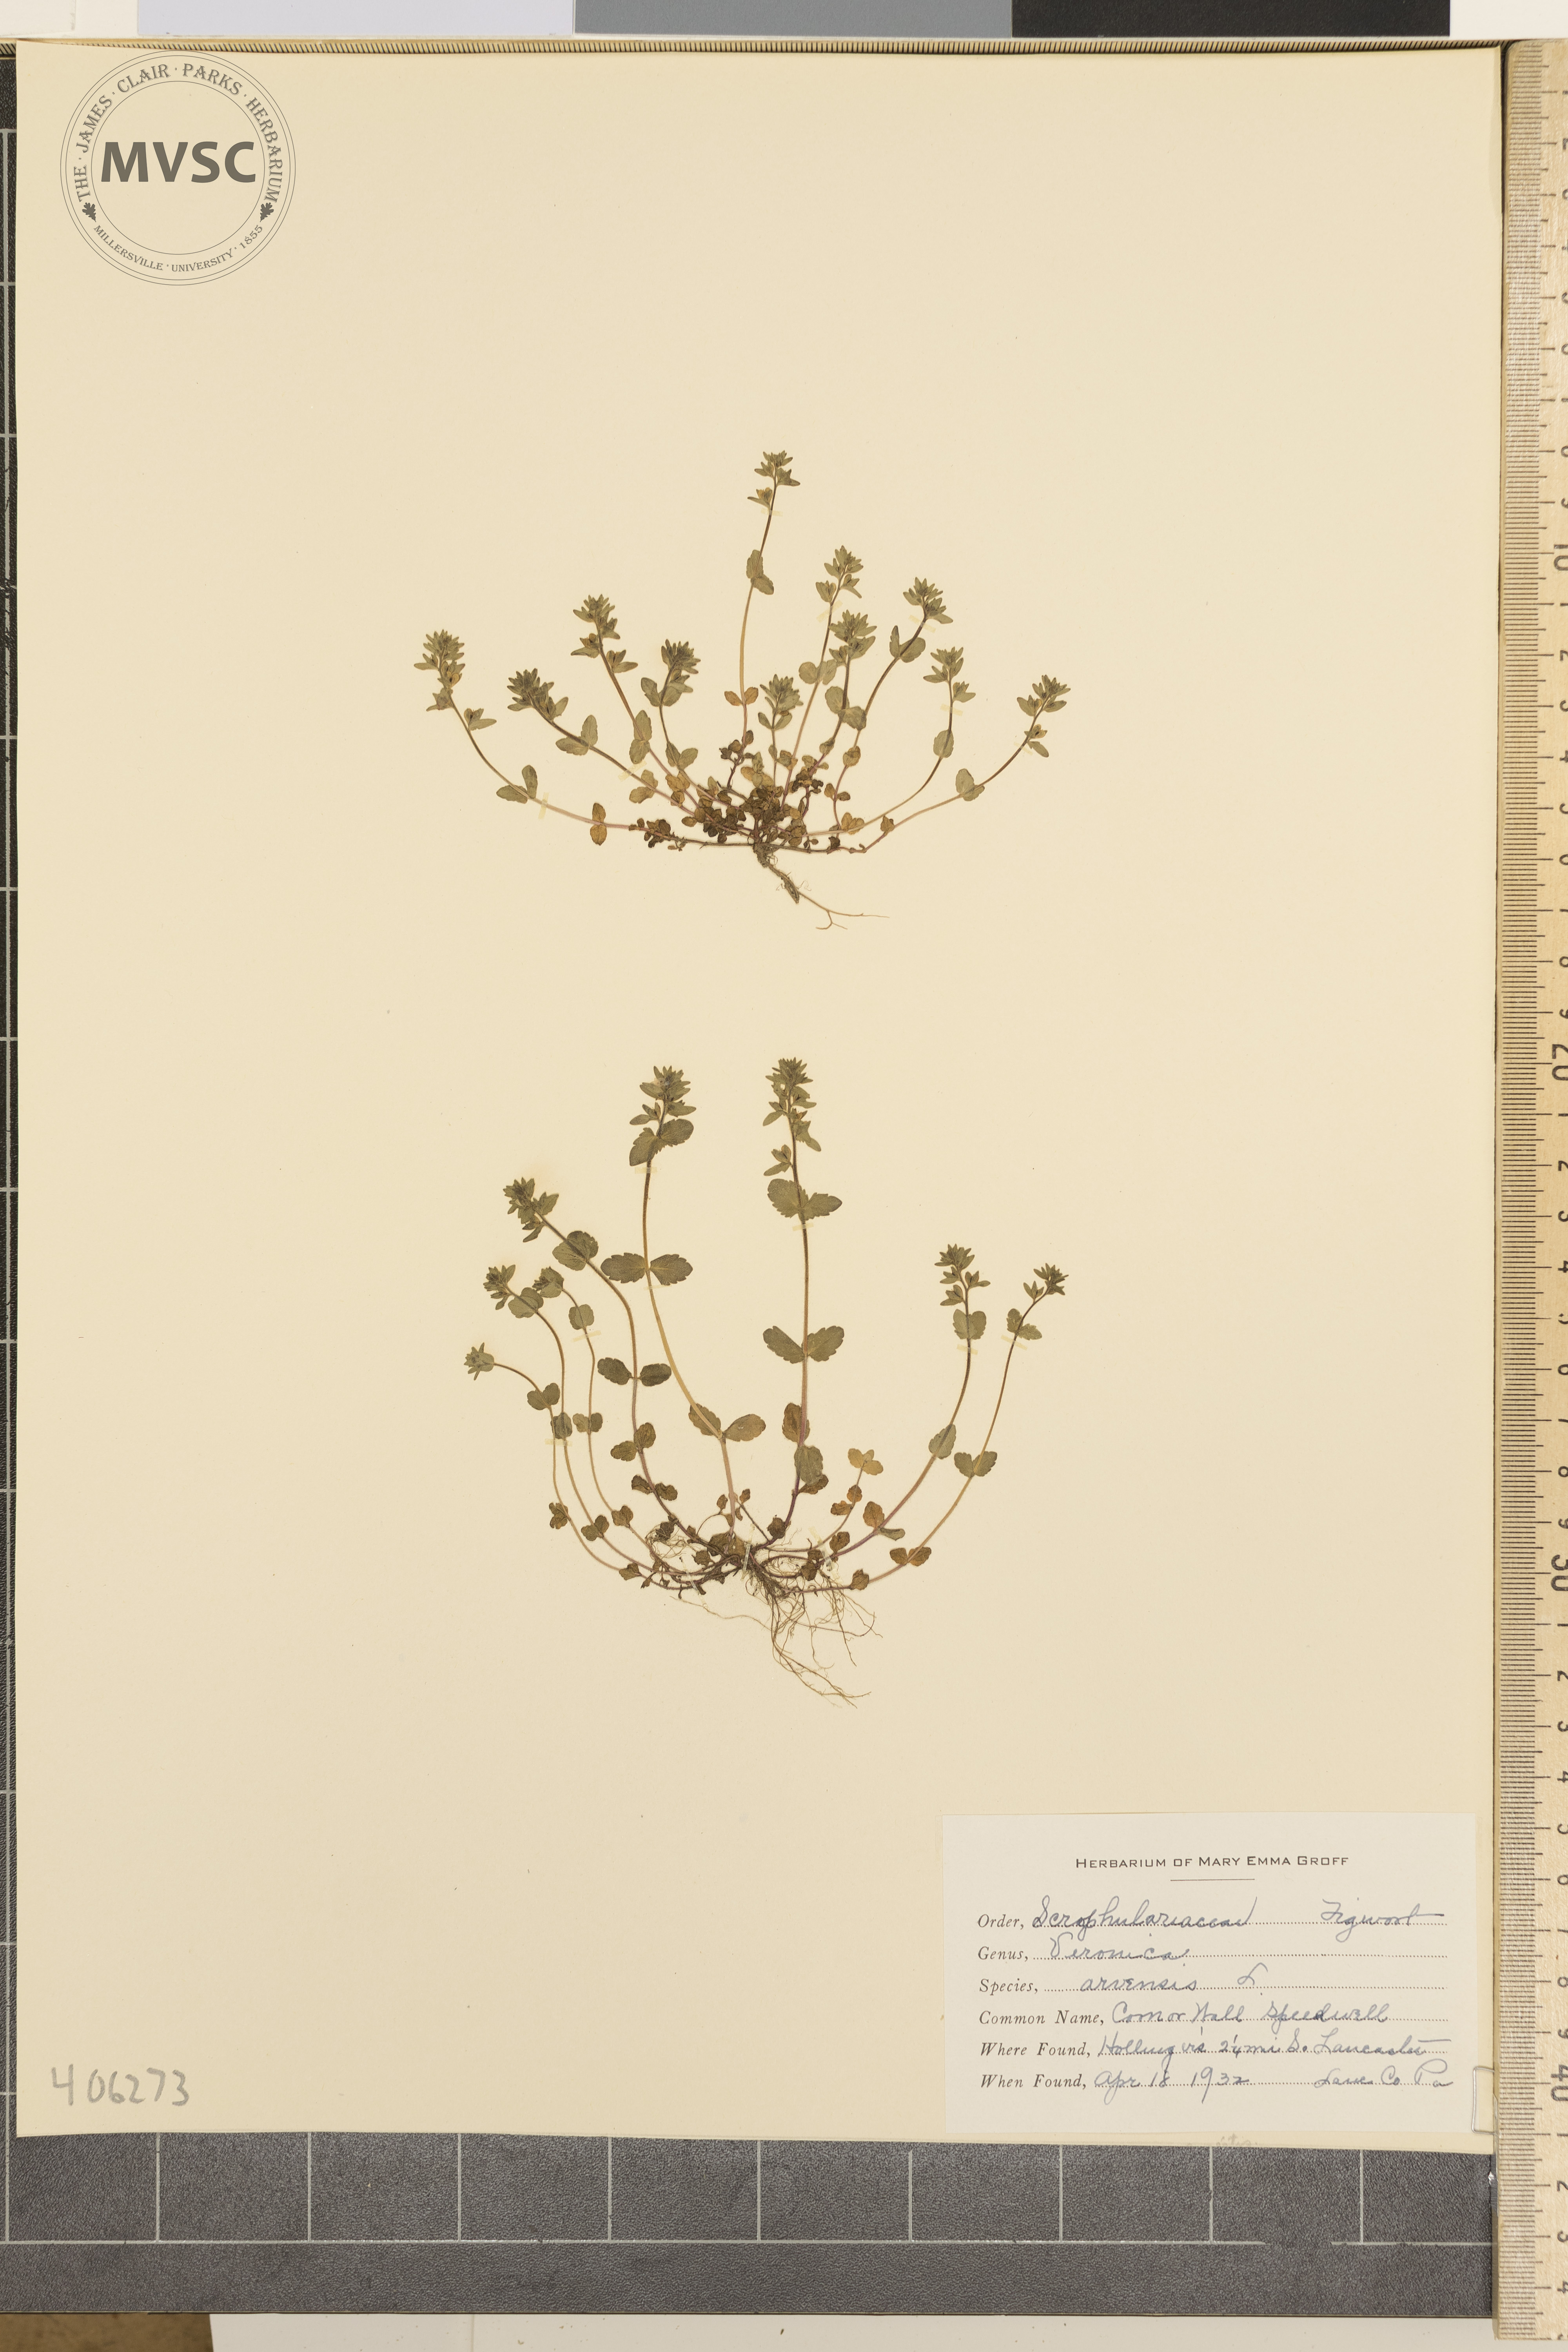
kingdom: Plantae
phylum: Tracheophyta
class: Magnoliopsida
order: Lamiales
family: Plantaginaceae
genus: Veronica
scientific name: Veronica arvensis
